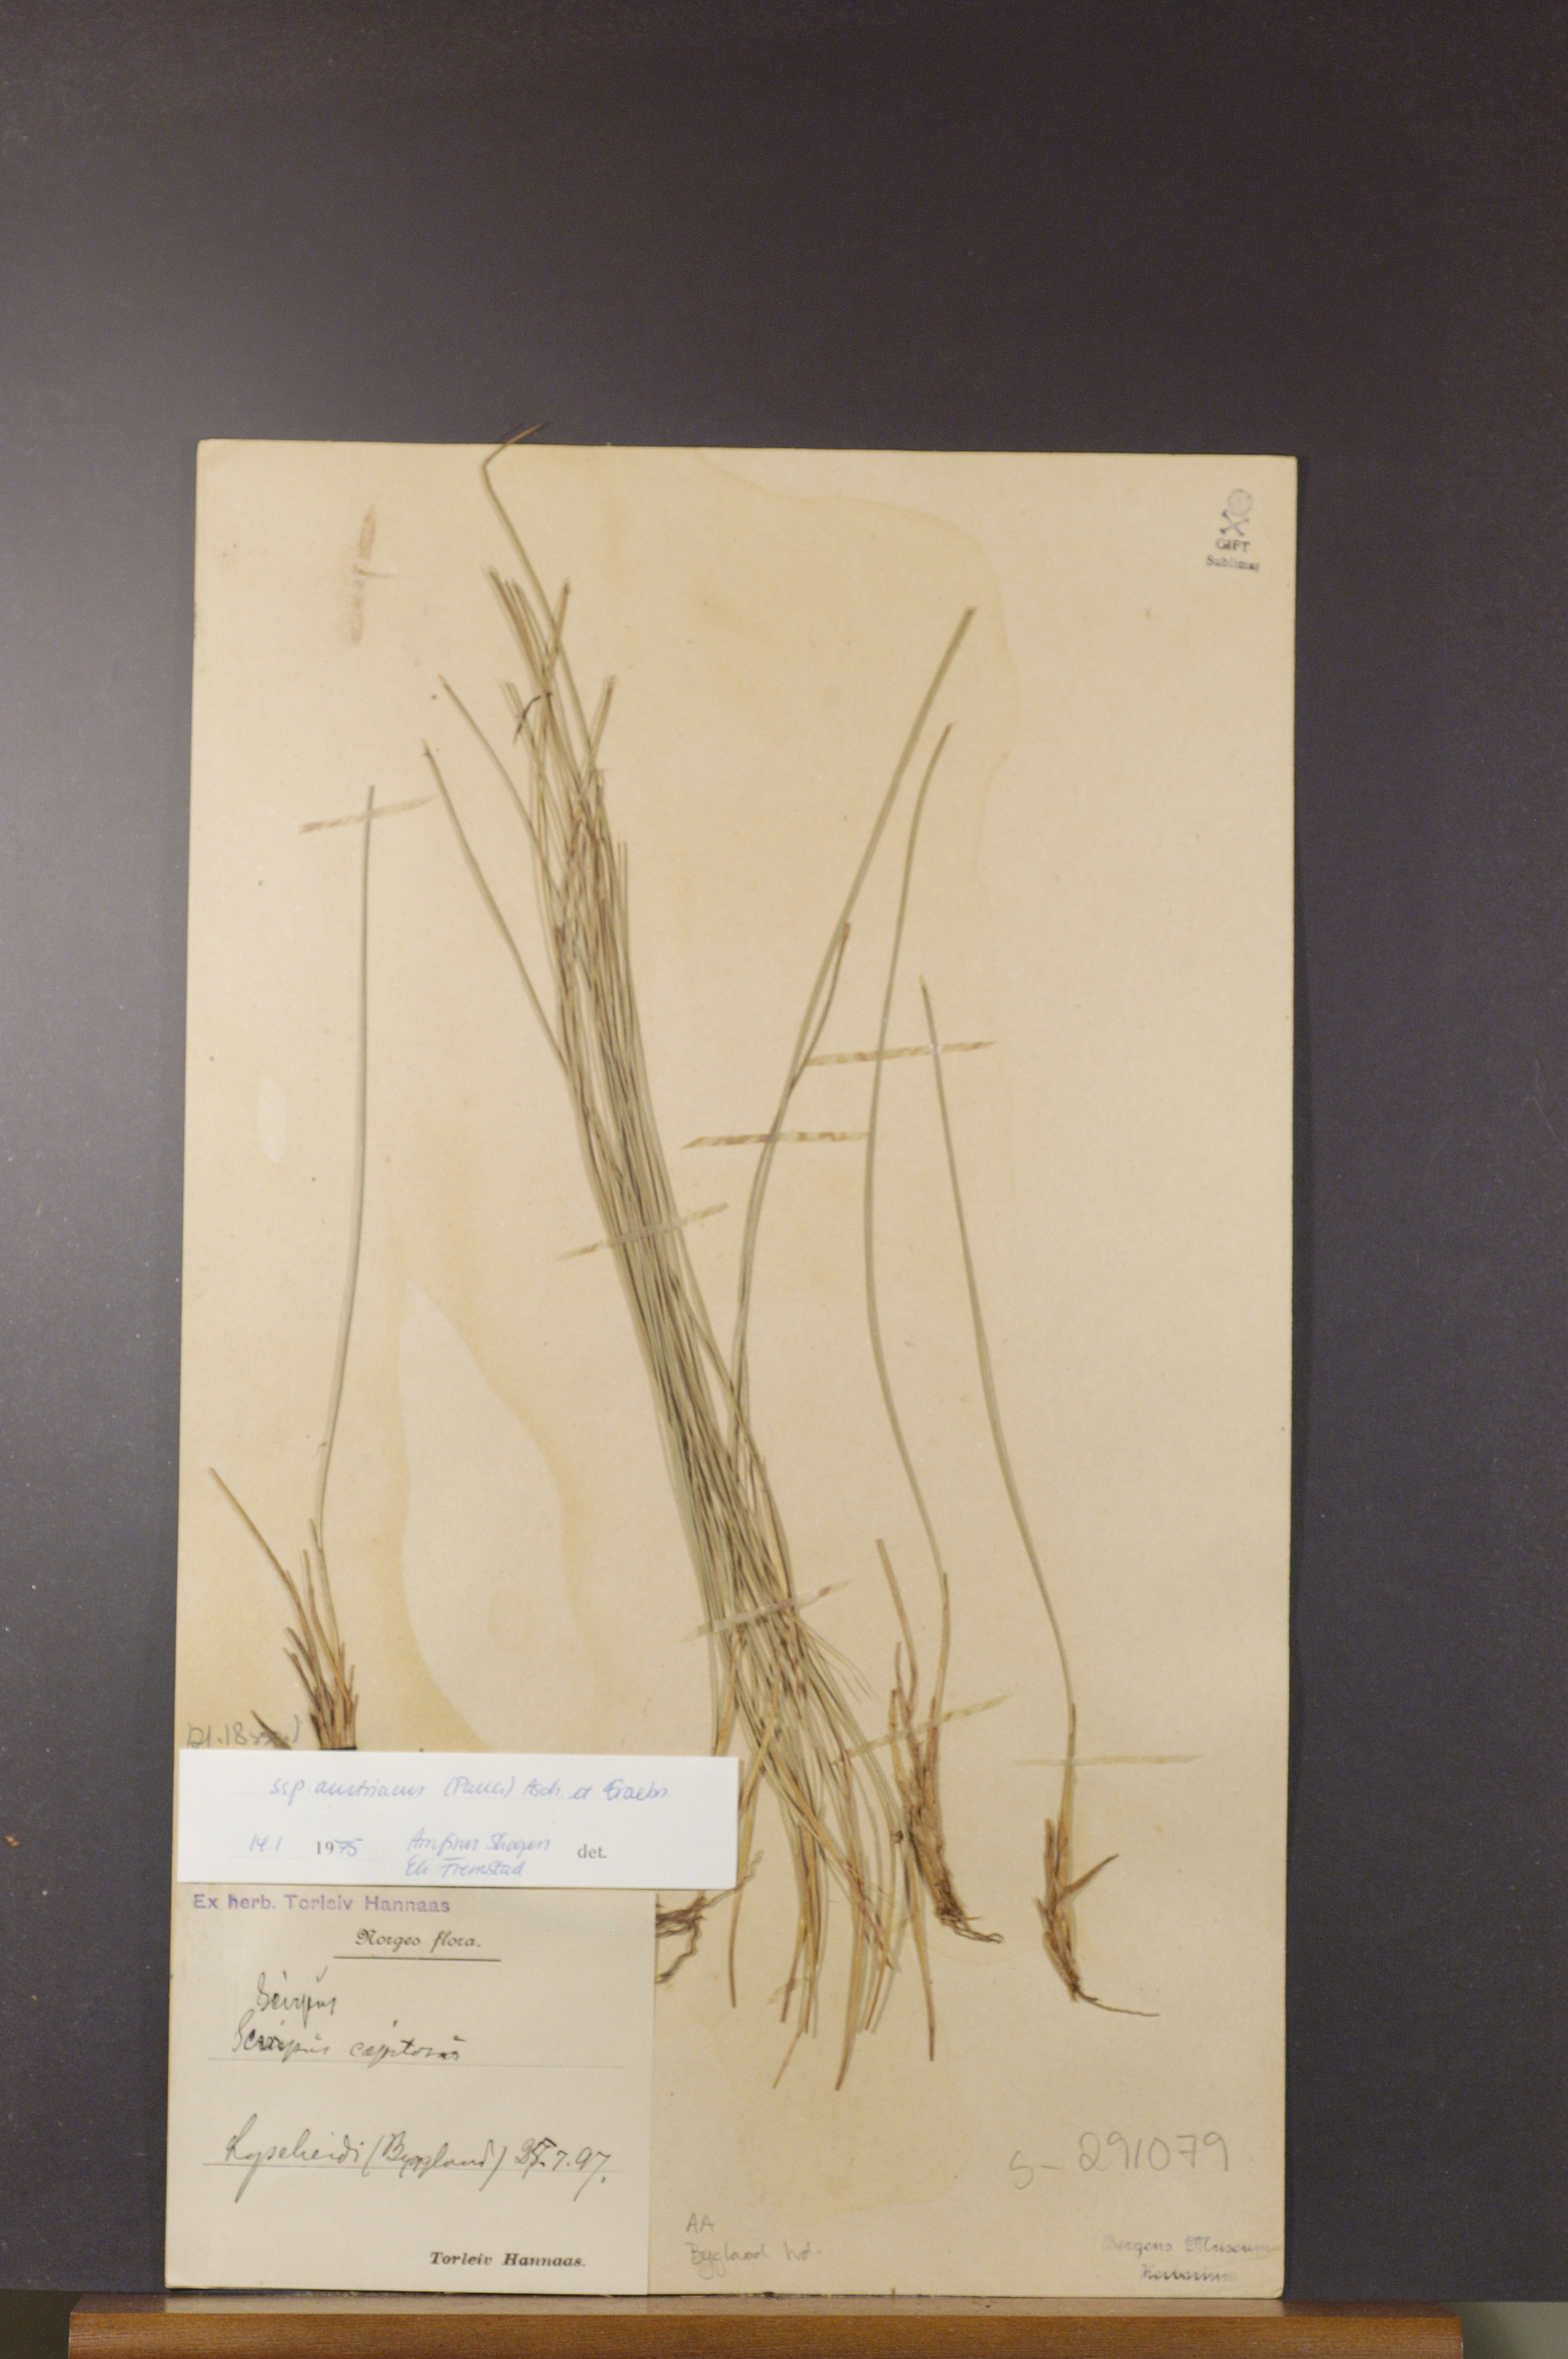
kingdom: Plantae
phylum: Tracheophyta
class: Liliopsida
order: Poales
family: Cyperaceae
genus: Trichophorum
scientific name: Trichophorum cespitosum
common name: Cespitose bulrush
